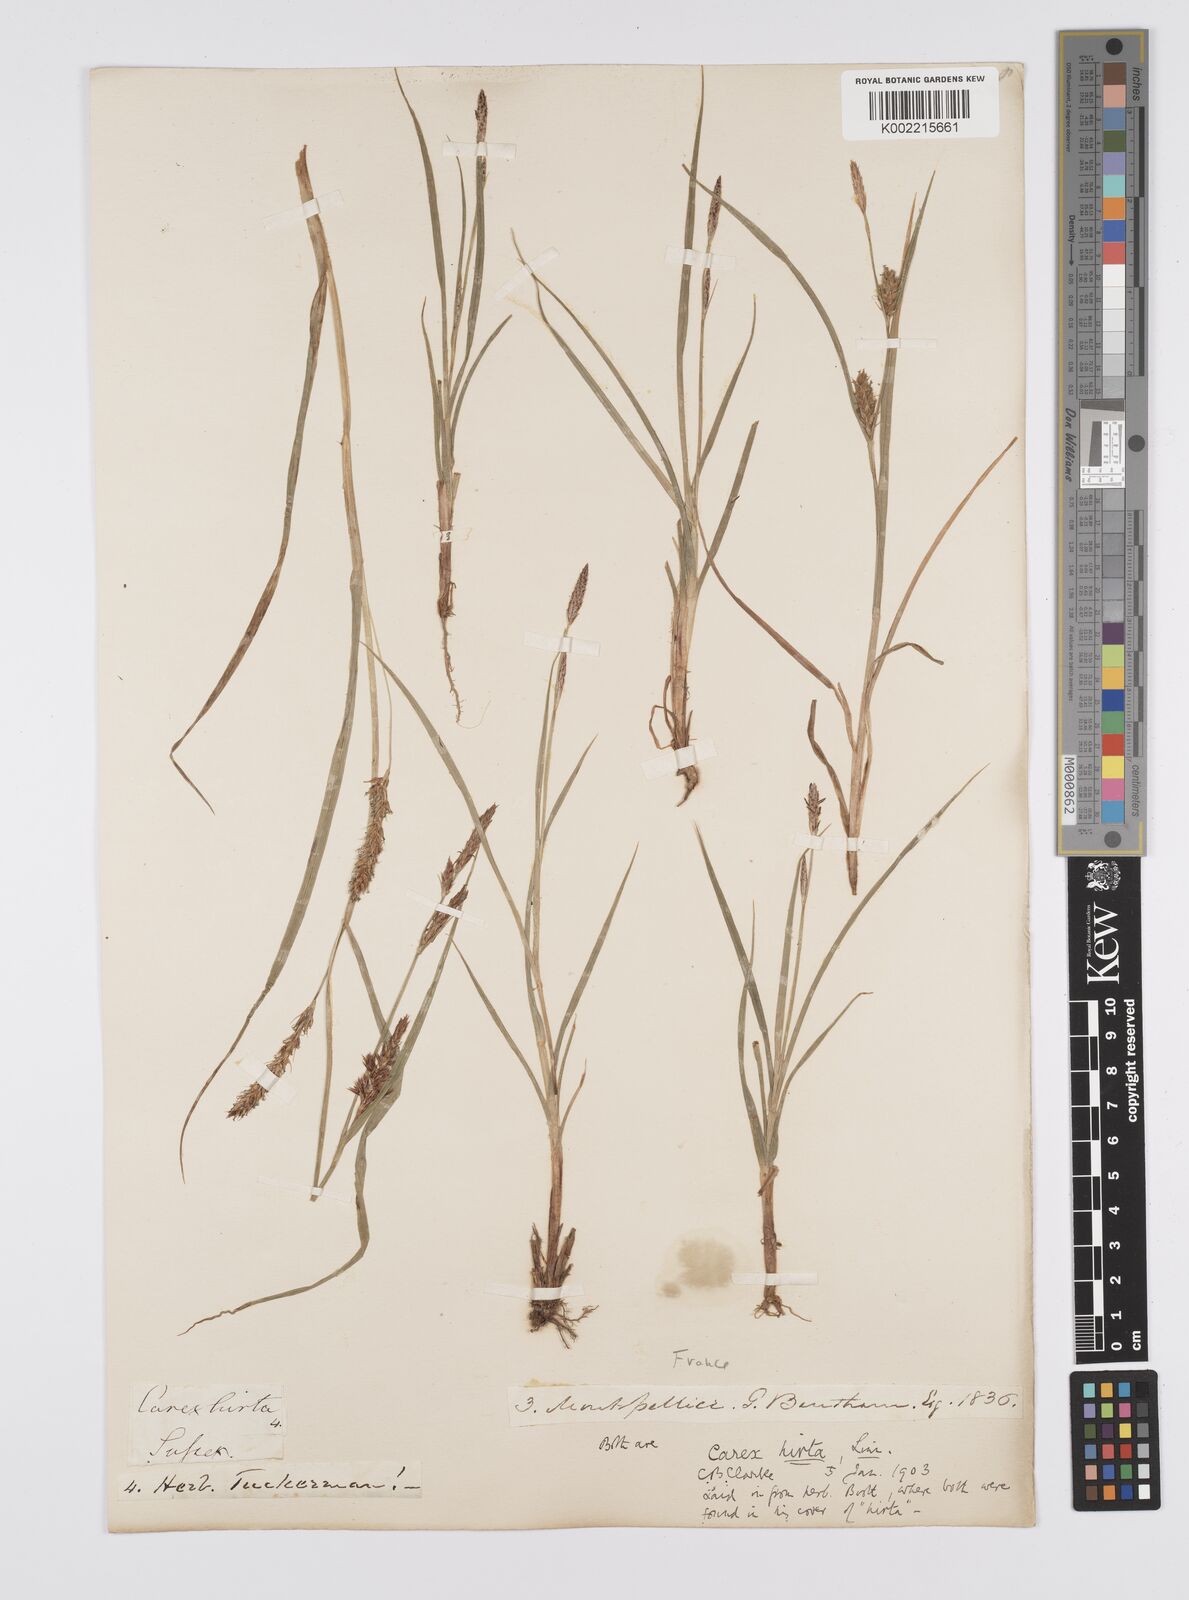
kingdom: Plantae
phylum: Tracheophyta
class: Liliopsida
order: Poales
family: Cyperaceae
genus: Carex
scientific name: Carex hirta
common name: Hairy sedge
